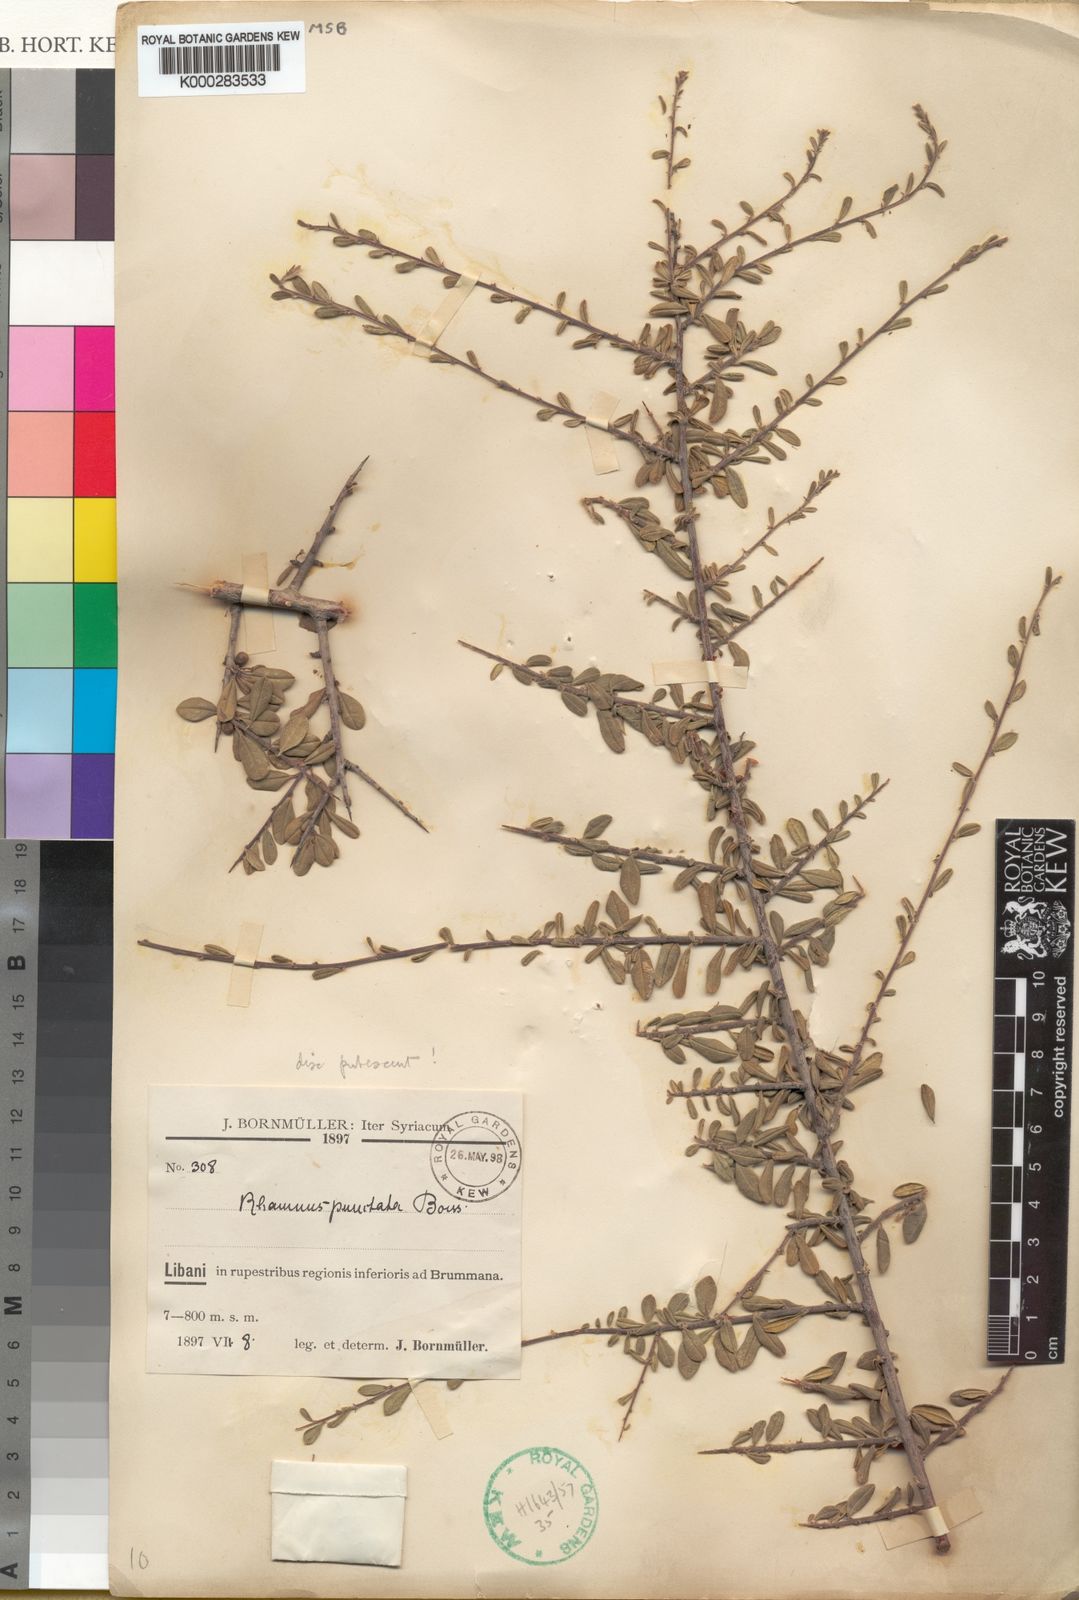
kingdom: Plantae
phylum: Tracheophyta
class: Magnoliopsida
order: Rosales
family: Rhamnaceae
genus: Rhamnus
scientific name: Rhamnus punctata
